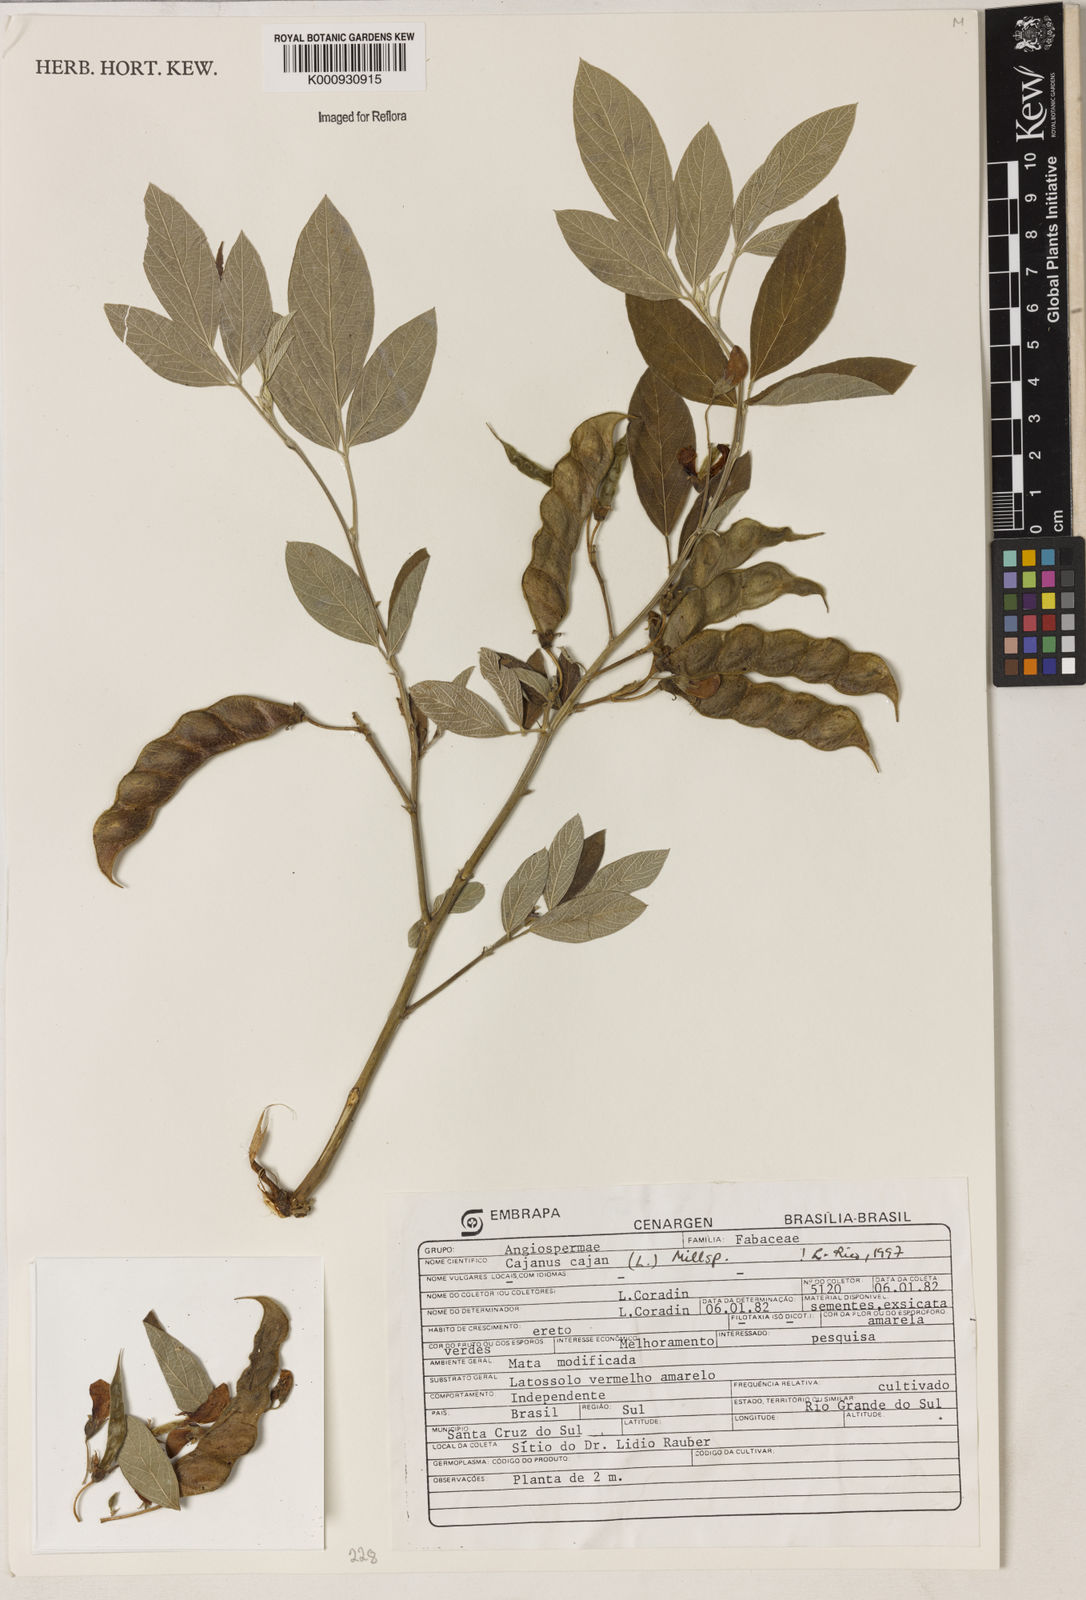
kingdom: Plantae
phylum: Tracheophyta
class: Magnoliopsida
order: Fabales
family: Fabaceae
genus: Cajanus
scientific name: Cajanus
